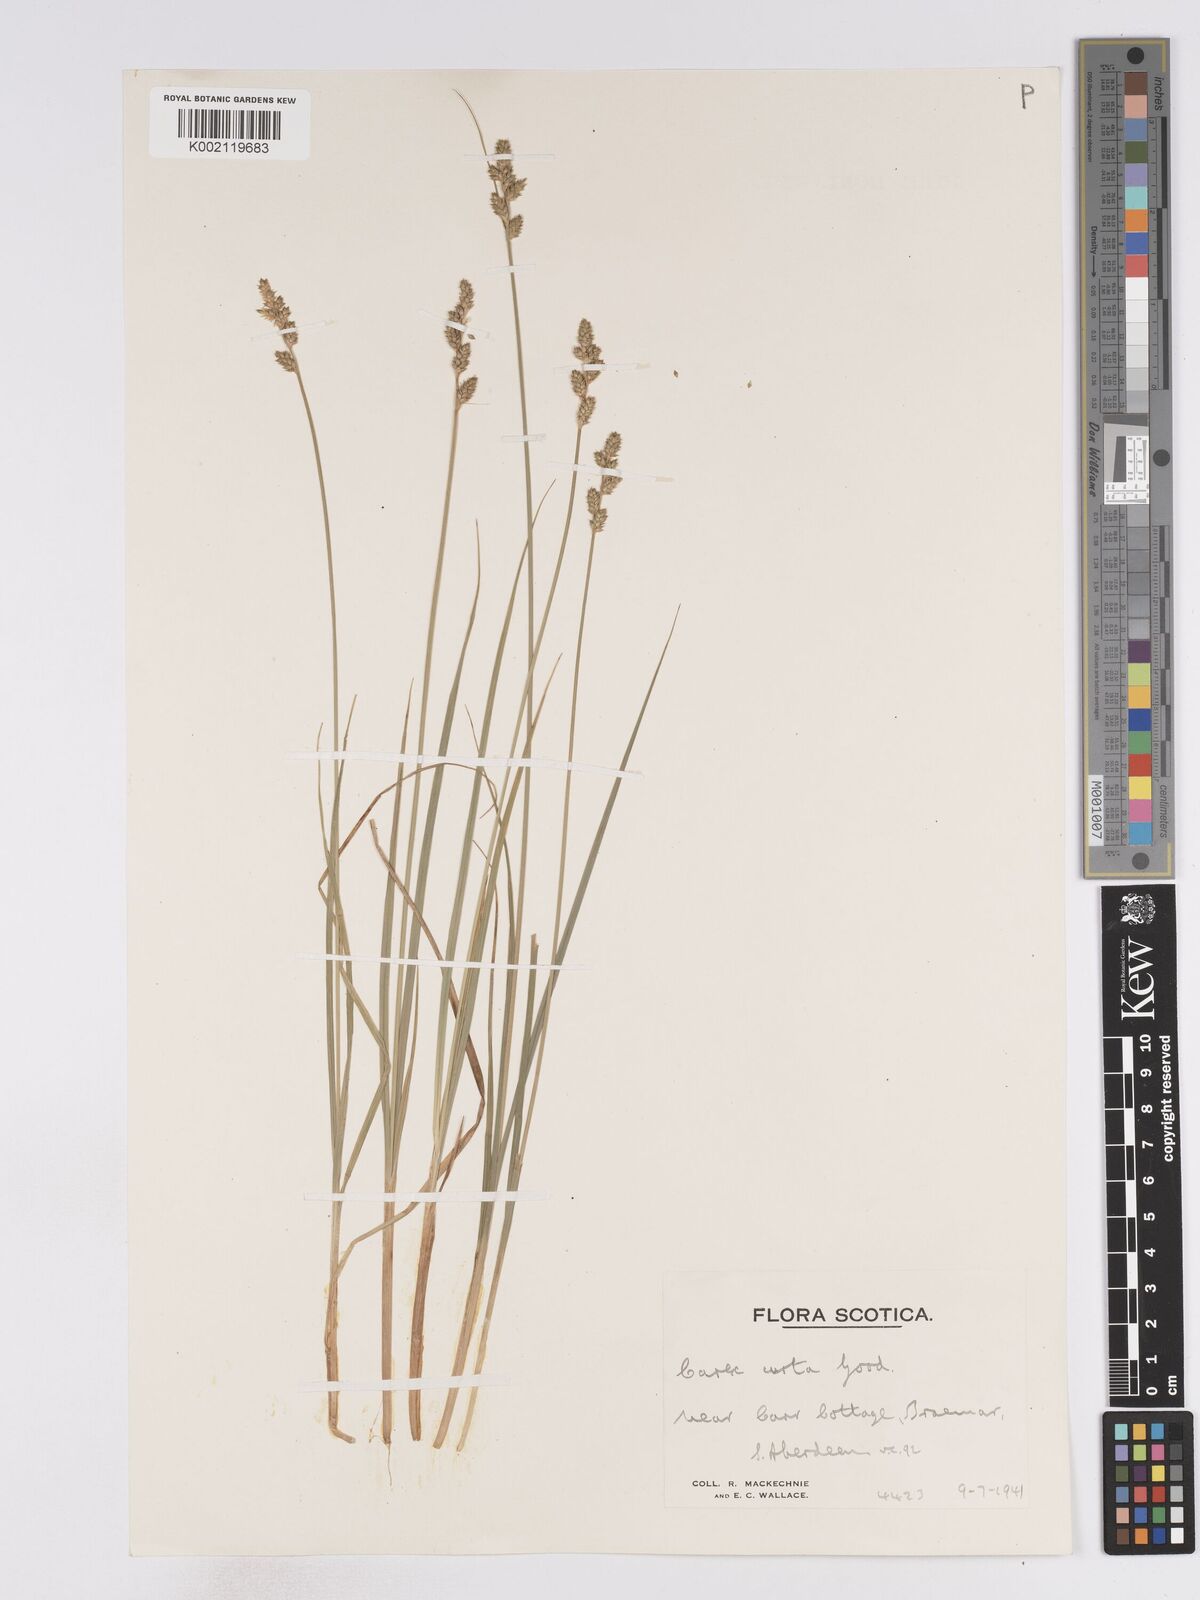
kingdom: Plantae
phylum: Tracheophyta
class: Liliopsida
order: Poales
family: Cyperaceae
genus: Carex
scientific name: Carex curta
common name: White sedge
